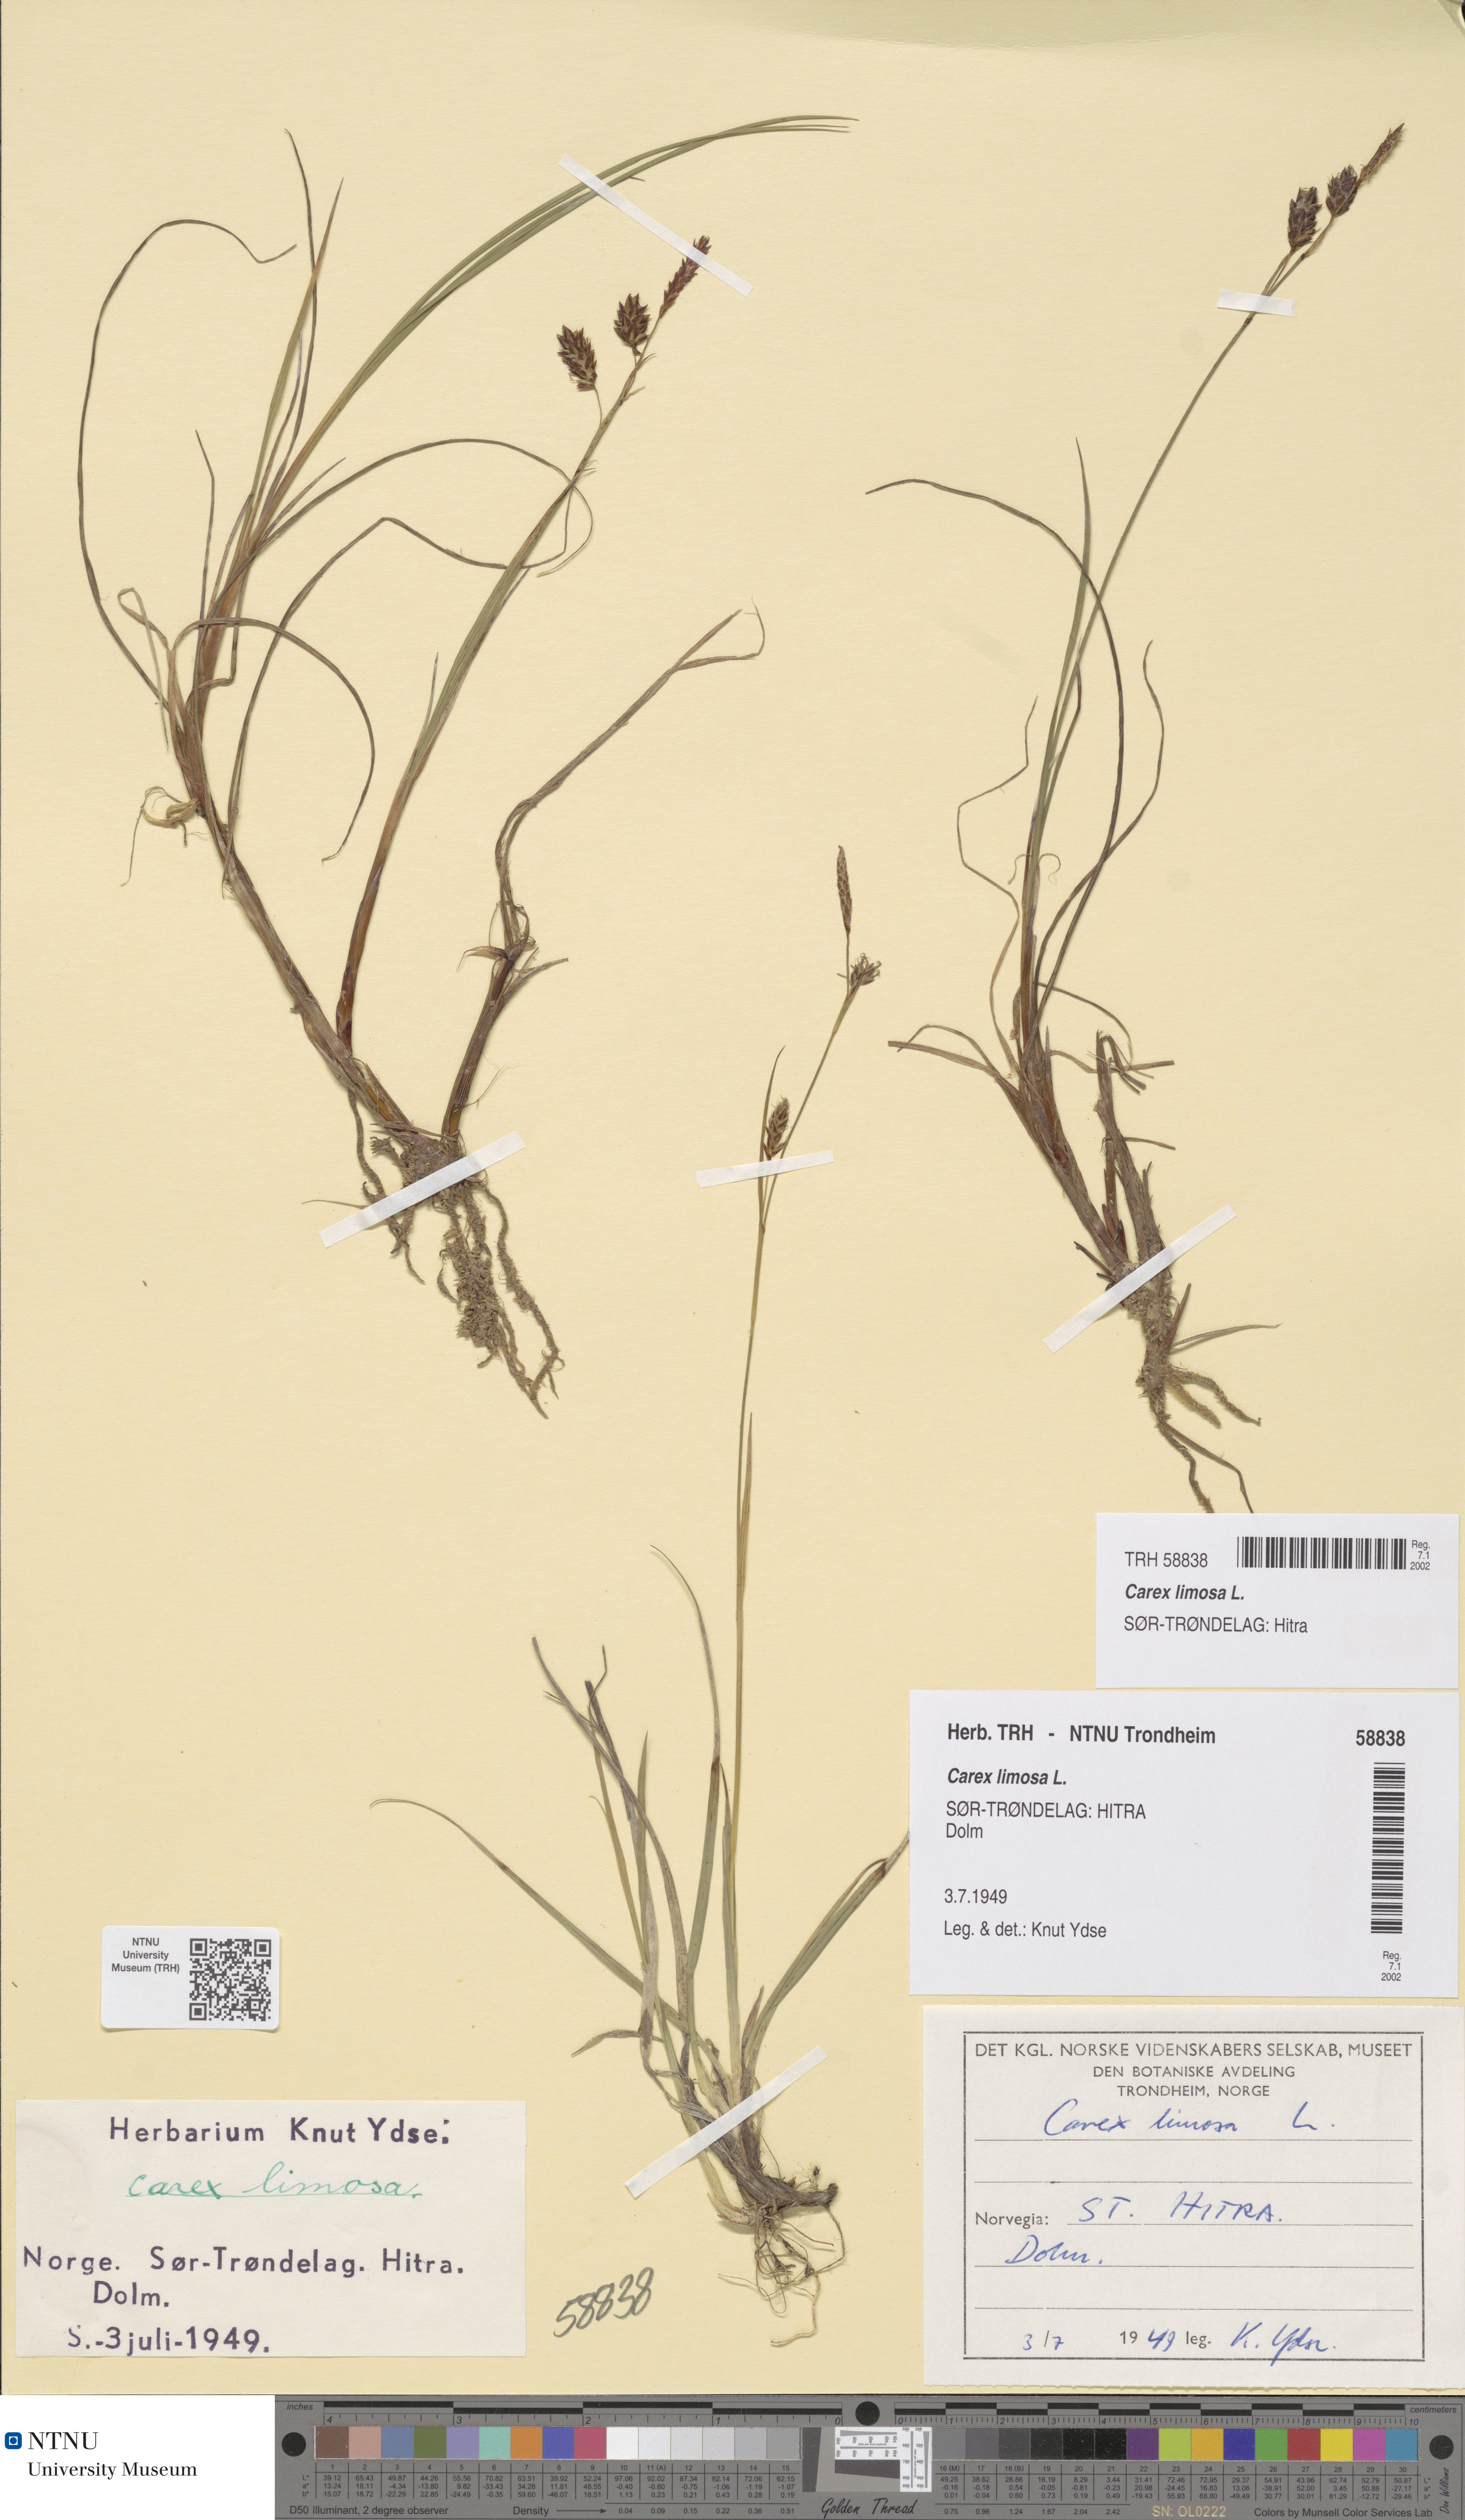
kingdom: Plantae
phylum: Tracheophyta
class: Liliopsida
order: Poales
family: Cyperaceae
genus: Carex
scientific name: Carex limosa
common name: Bog sedge
